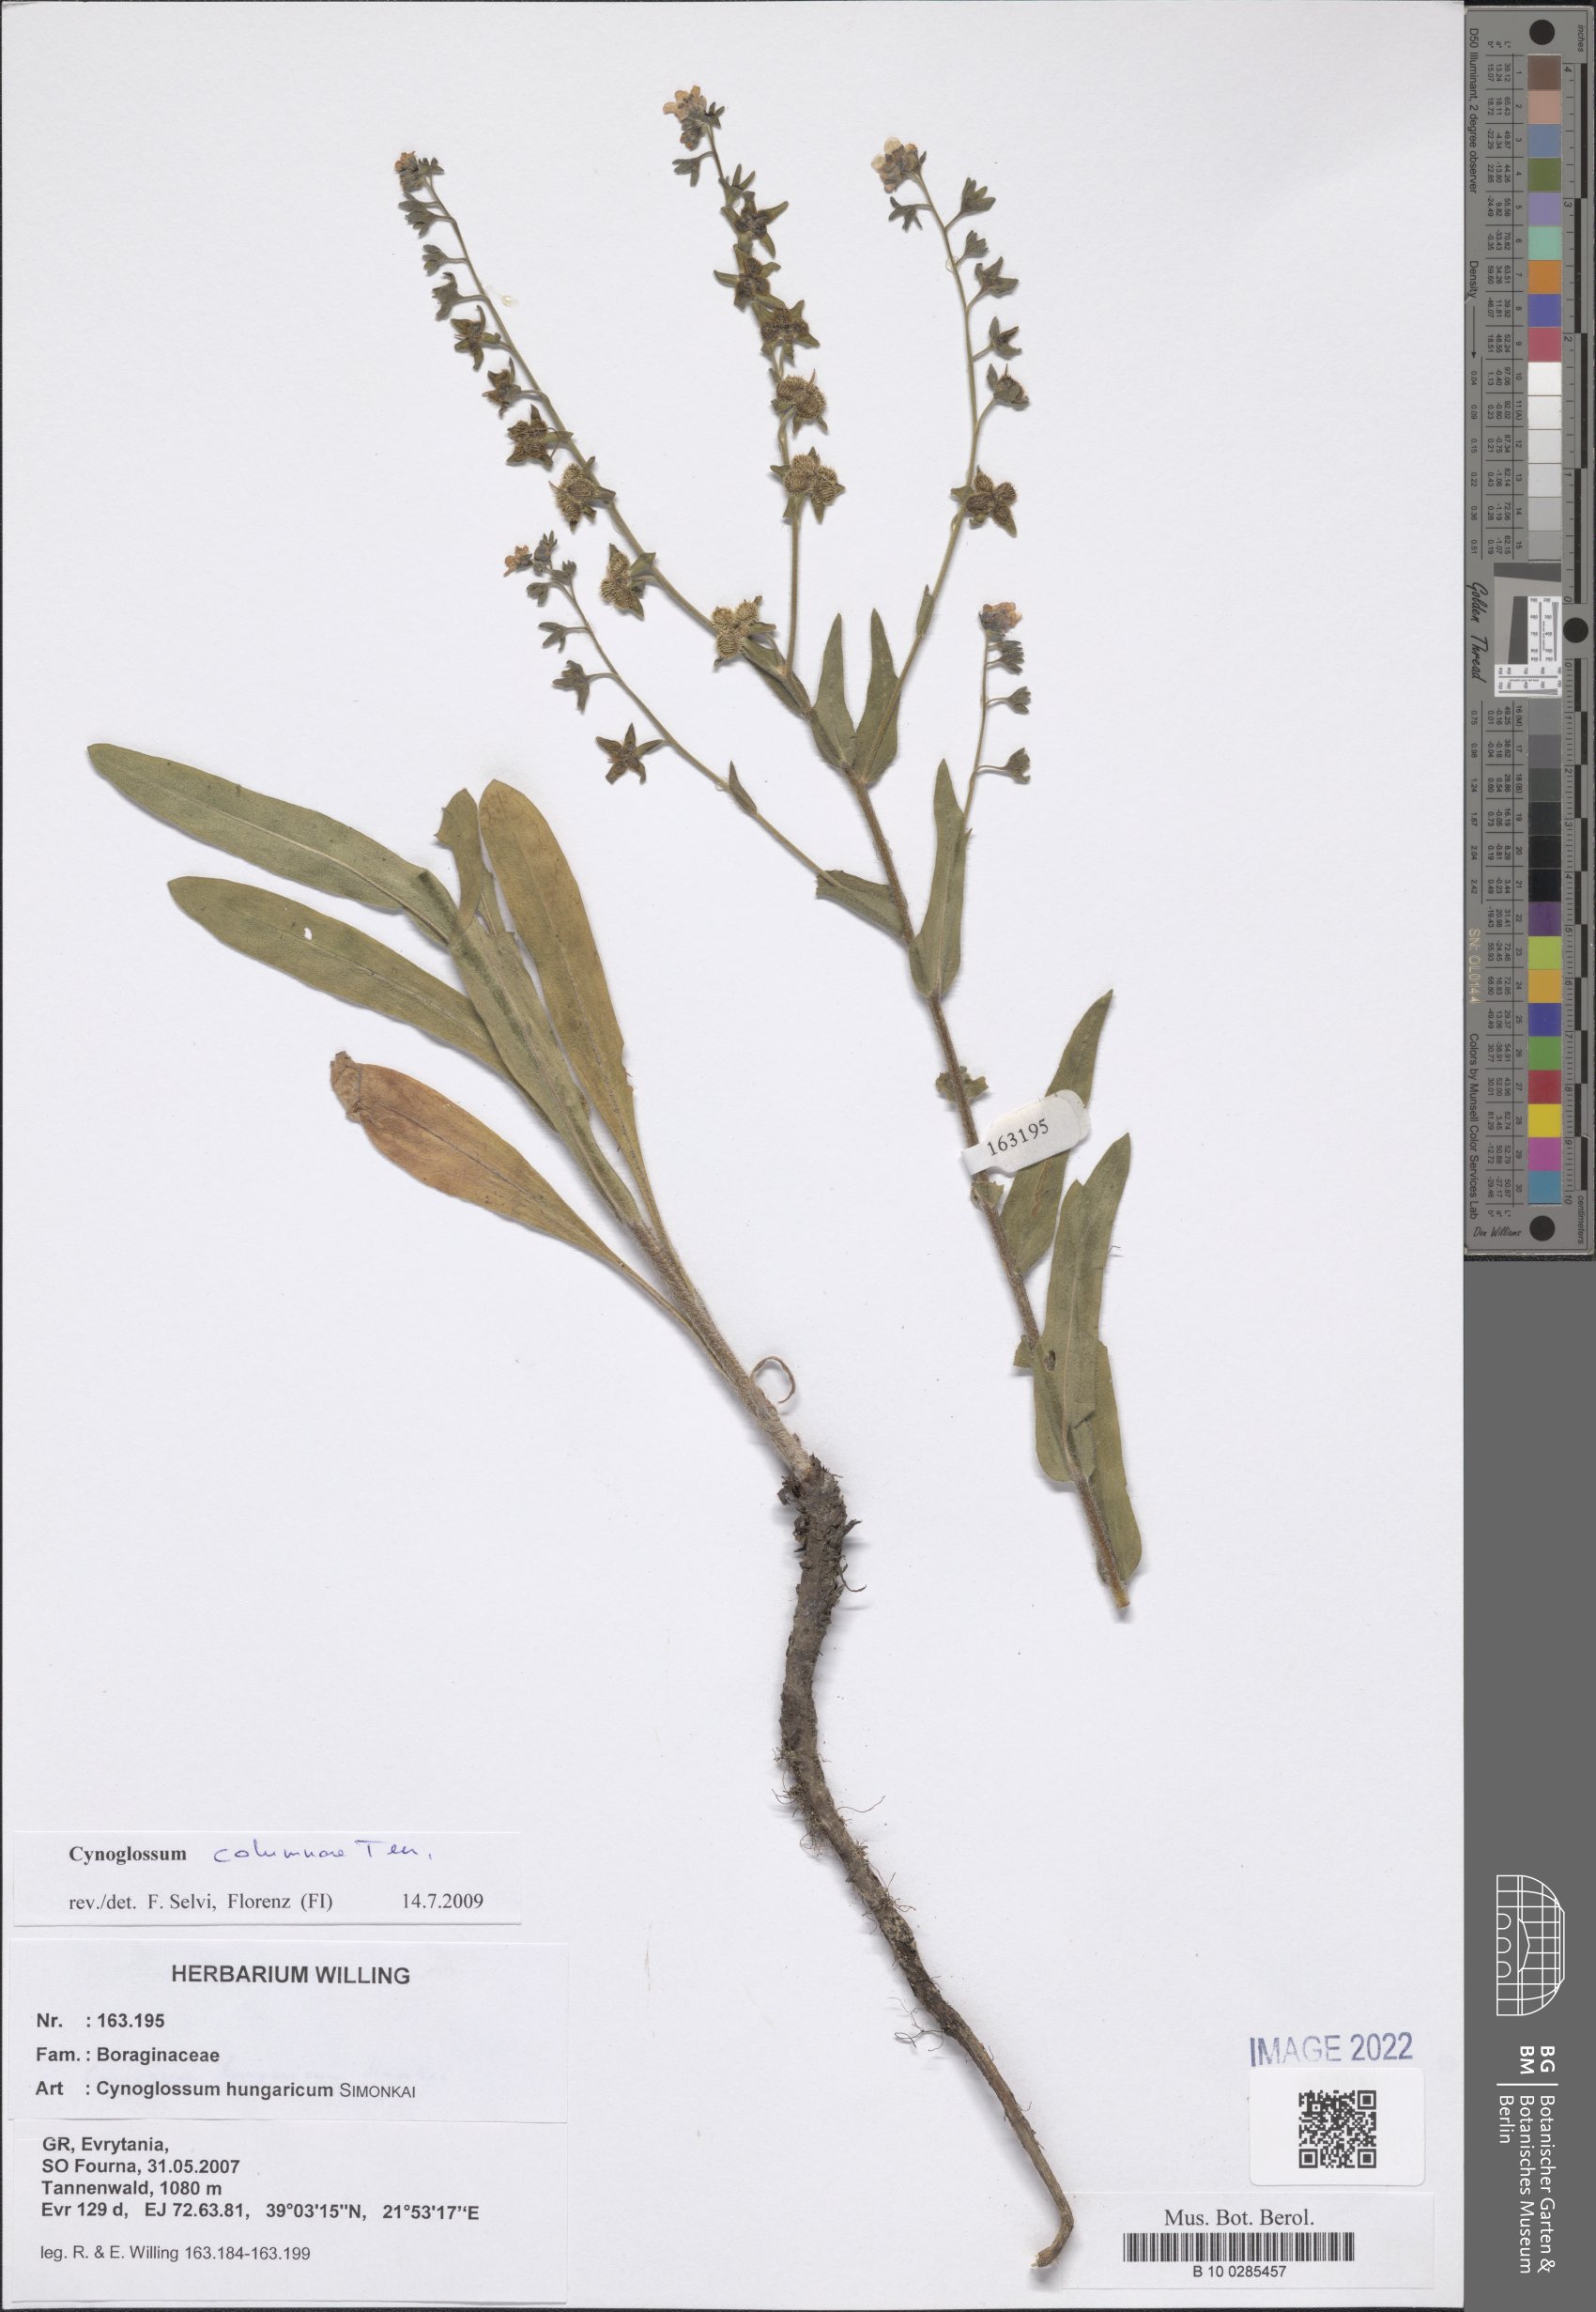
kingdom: Plantae
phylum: Tracheophyta
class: Magnoliopsida
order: Boraginales
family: Boraginaceae
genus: Cynoglossum
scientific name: Cynoglossum montanum
